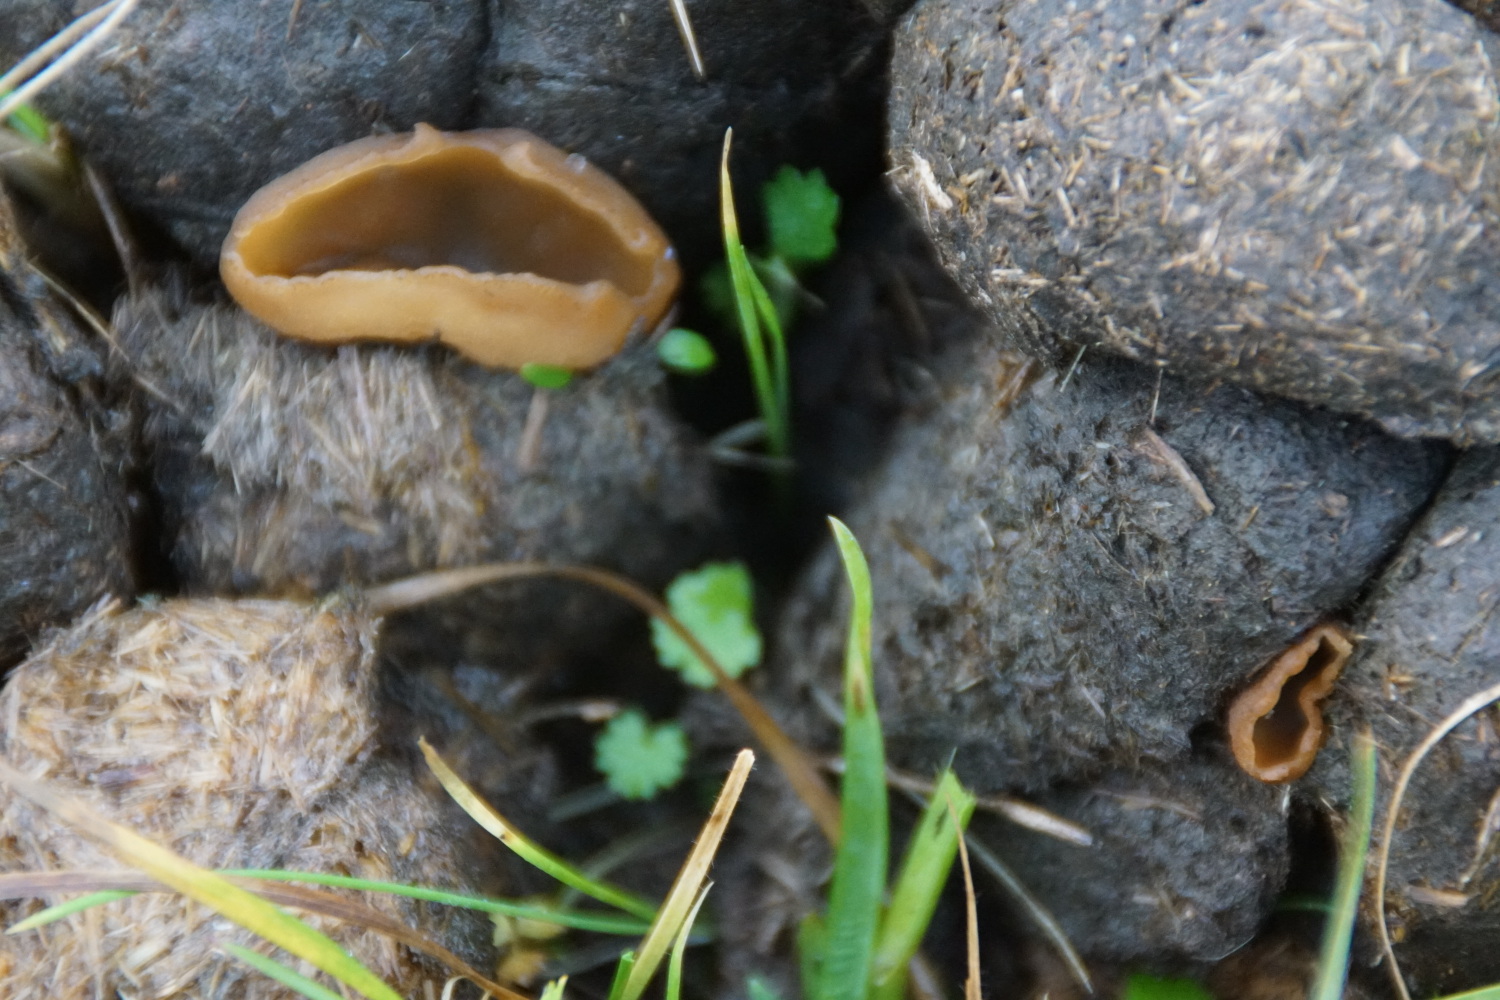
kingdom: Fungi
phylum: Ascomycota
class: Pezizomycetes
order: Pezizales
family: Pezizaceae
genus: Peziza
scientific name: Peziza
